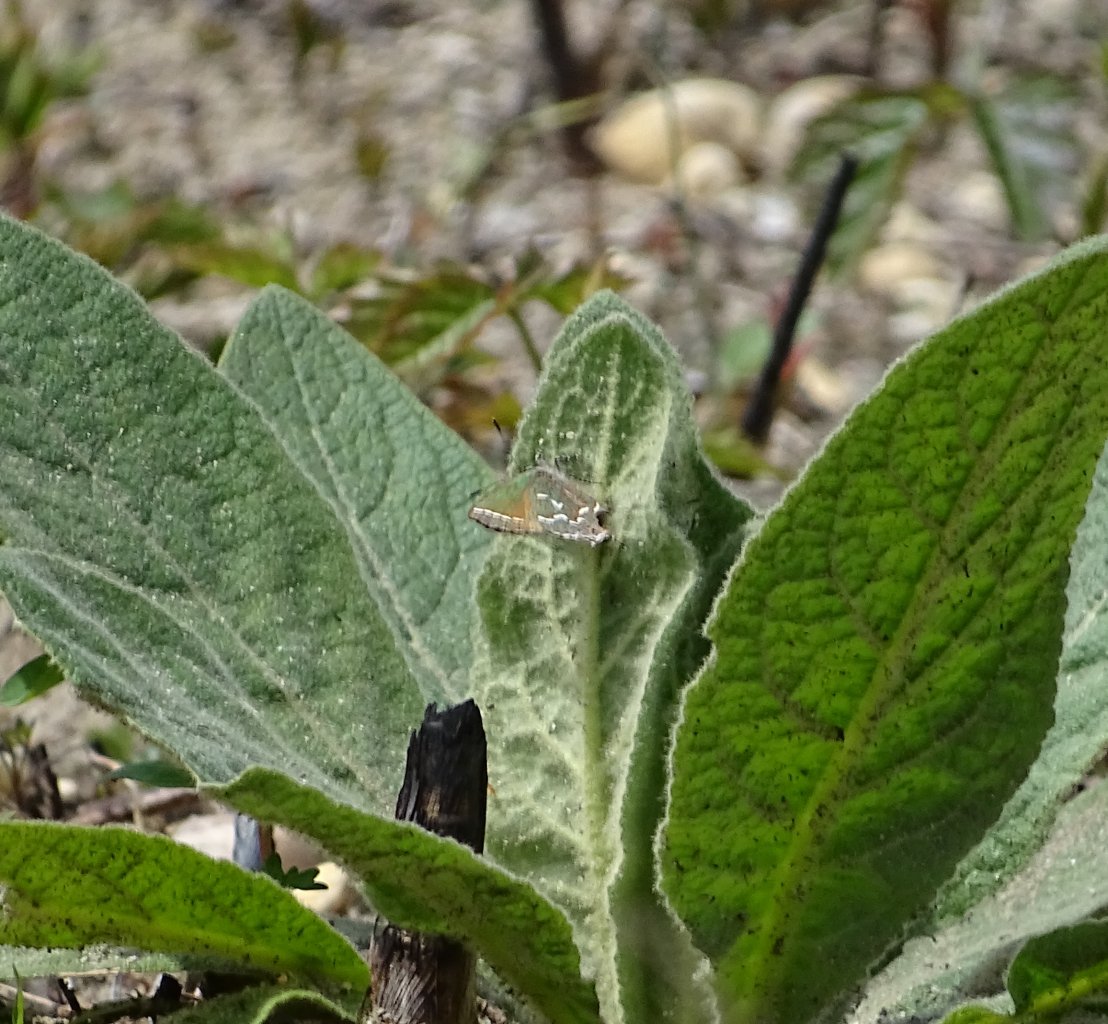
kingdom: Animalia
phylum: Arthropoda
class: Insecta
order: Lepidoptera
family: Lycaenidae
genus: Mitoura
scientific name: Mitoura gryneus
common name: Juniper Hairstreak
